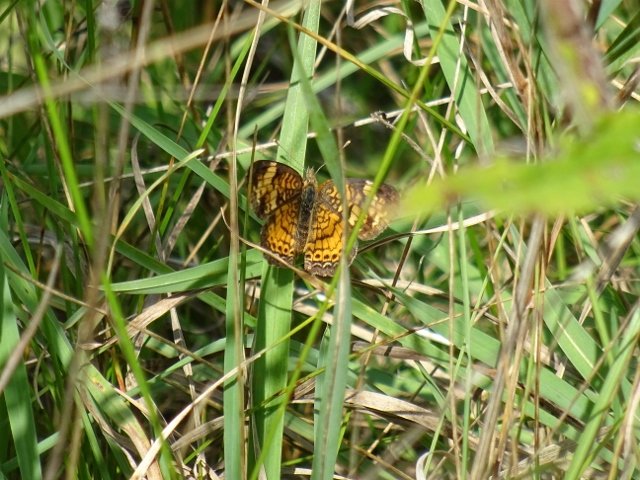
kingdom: Animalia
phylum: Arthropoda
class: Insecta
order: Lepidoptera
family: Nymphalidae
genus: Phyciodes
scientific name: Phyciodes
